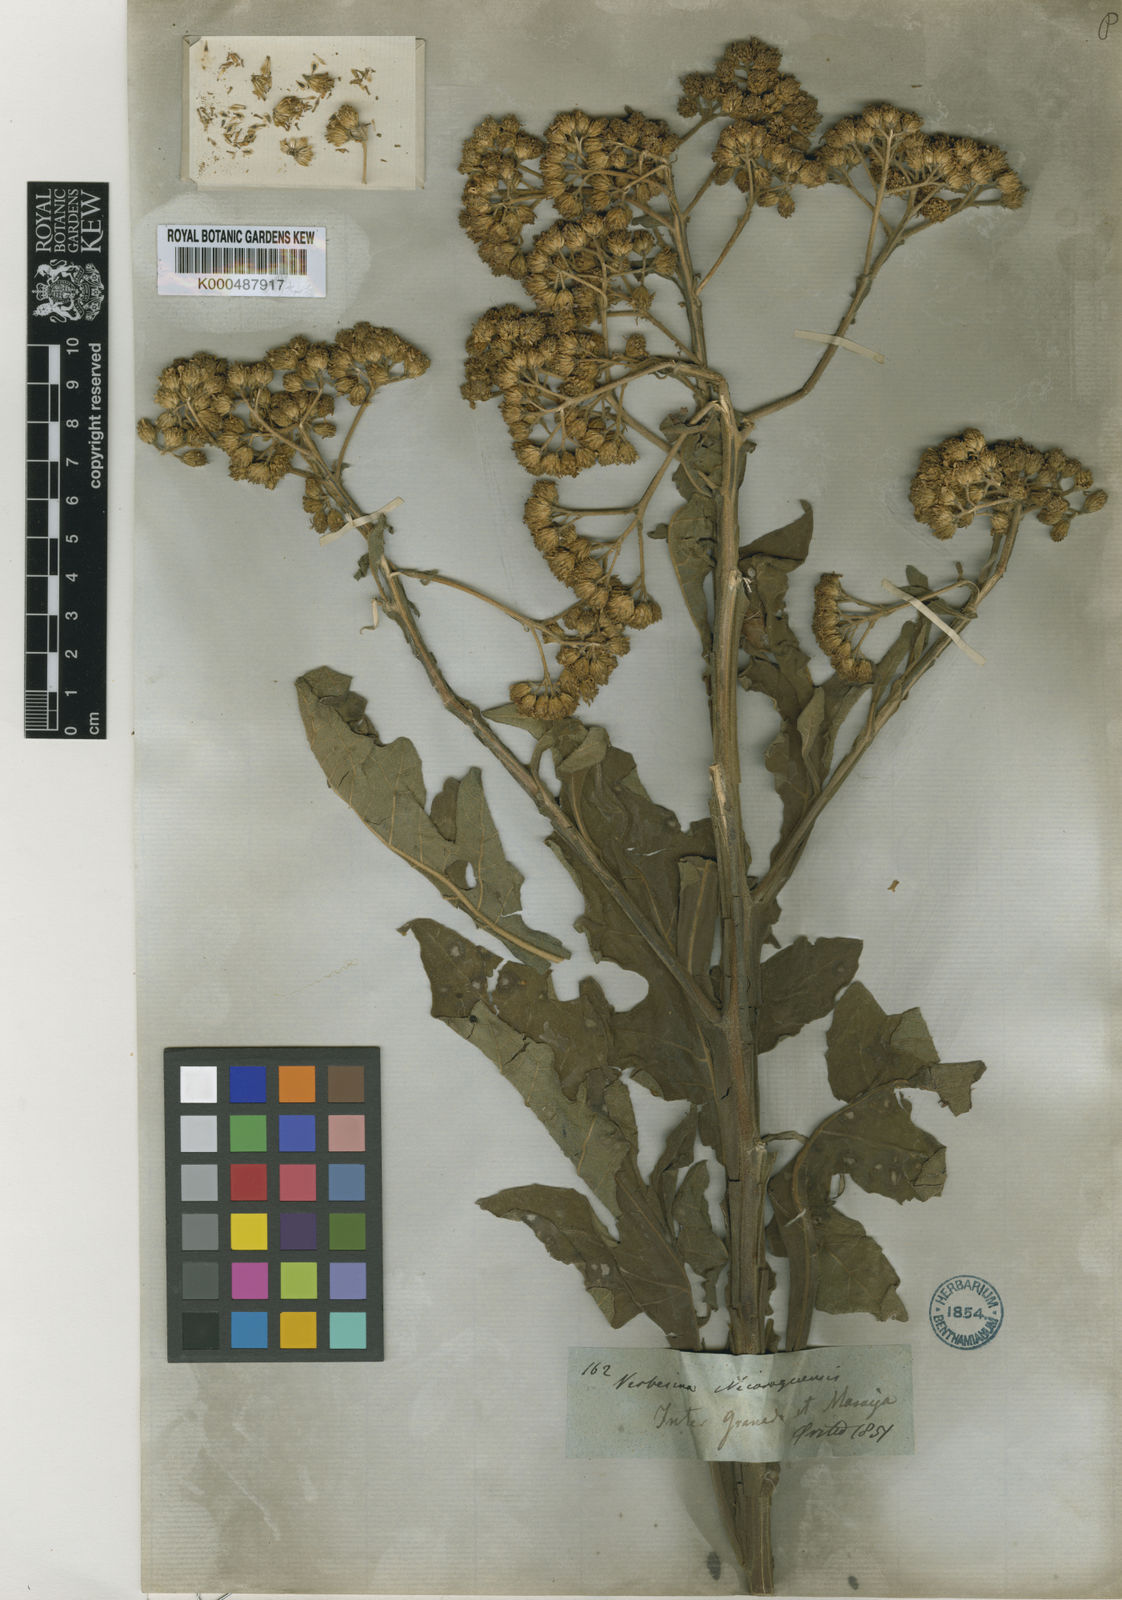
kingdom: Plantae
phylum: Tracheophyta
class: Magnoliopsida
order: Asterales
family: Asteraceae
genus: Verbesina
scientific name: Verbesina turbacensis
